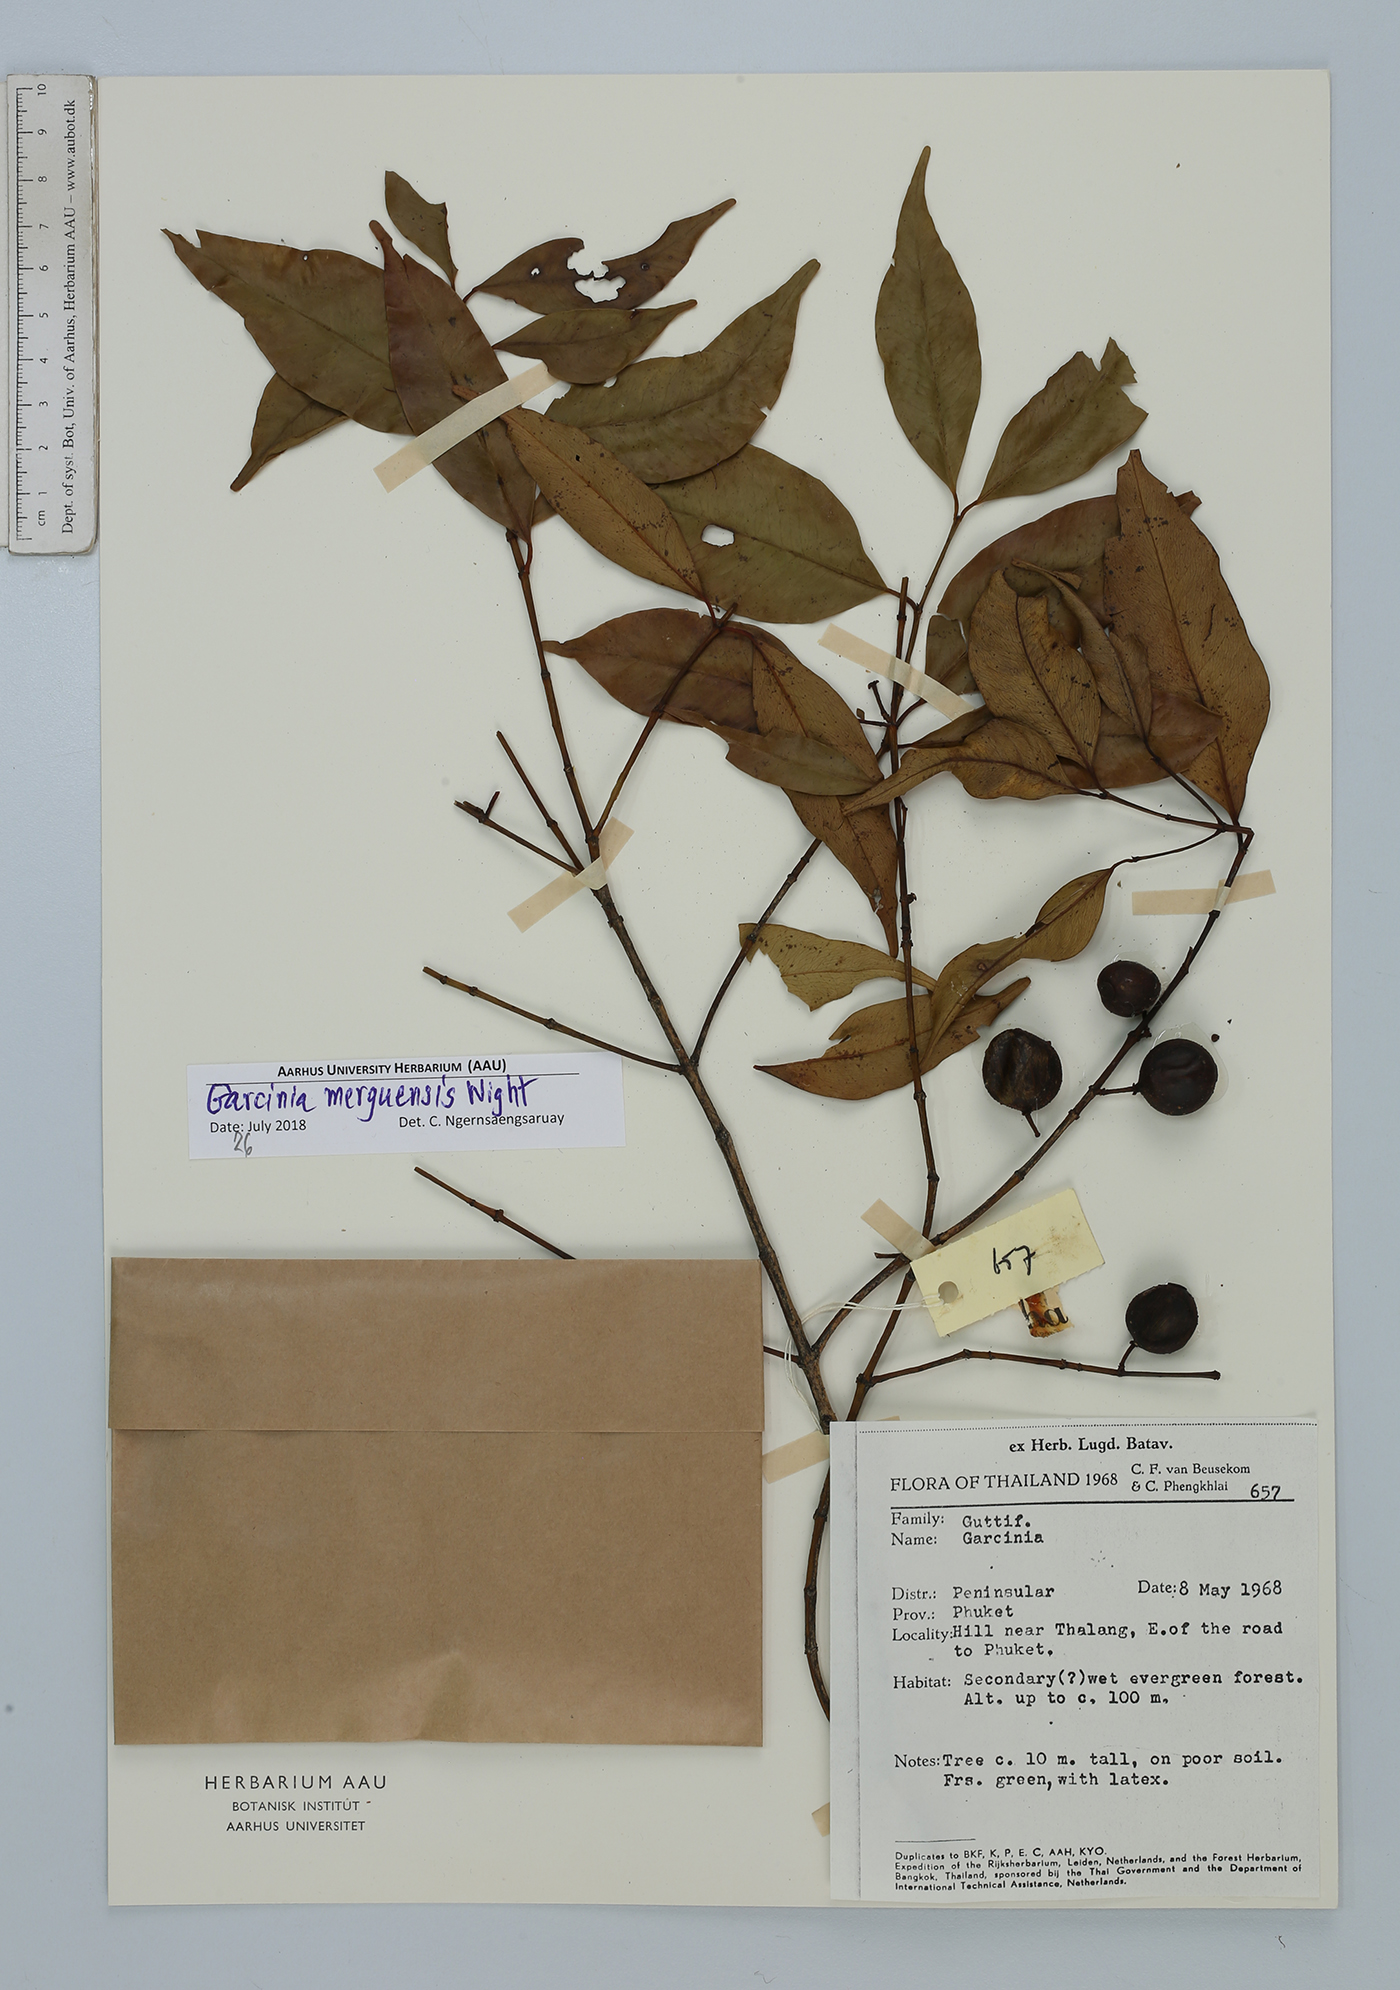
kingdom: Plantae
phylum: Tracheophyta
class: Magnoliopsida
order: Malpighiales
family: Clusiaceae
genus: Garcinia
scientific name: Garcinia merguensis
